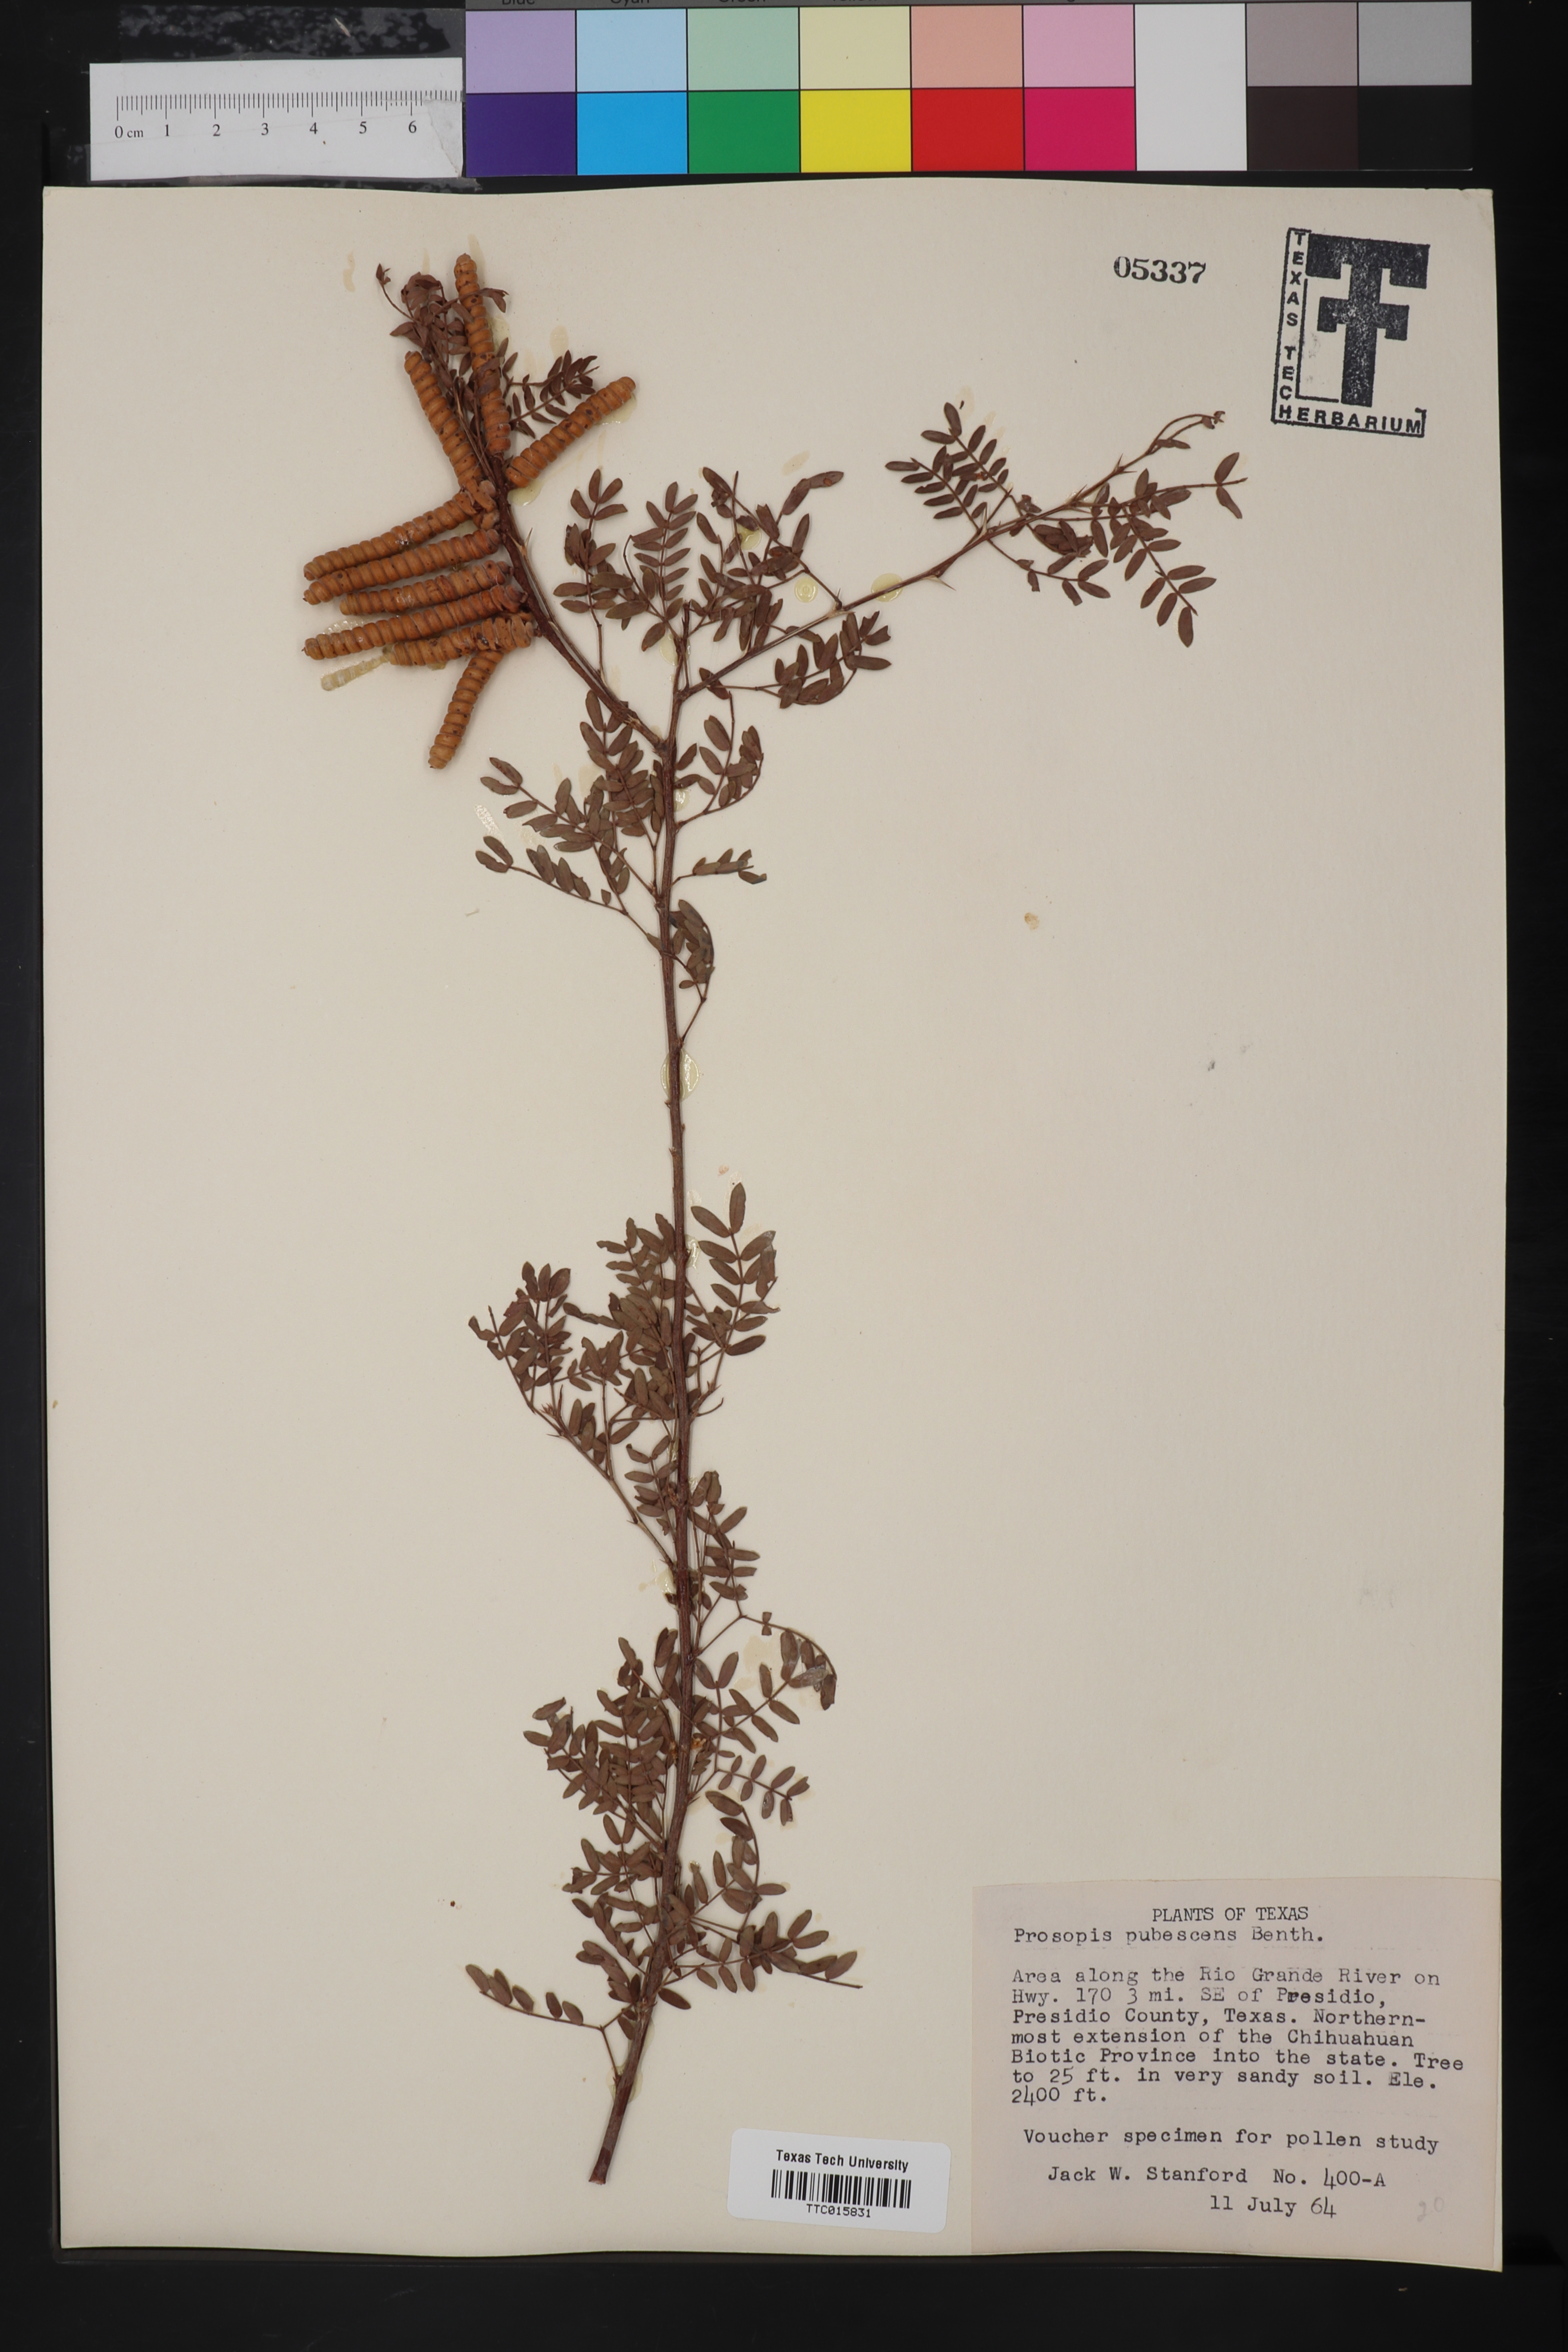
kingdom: Plantae
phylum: Tracheophyta
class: Magnoliopsida
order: Fabales
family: Fabaceae
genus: Prosopis
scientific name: Prosopis pubescens
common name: Screw-bean
